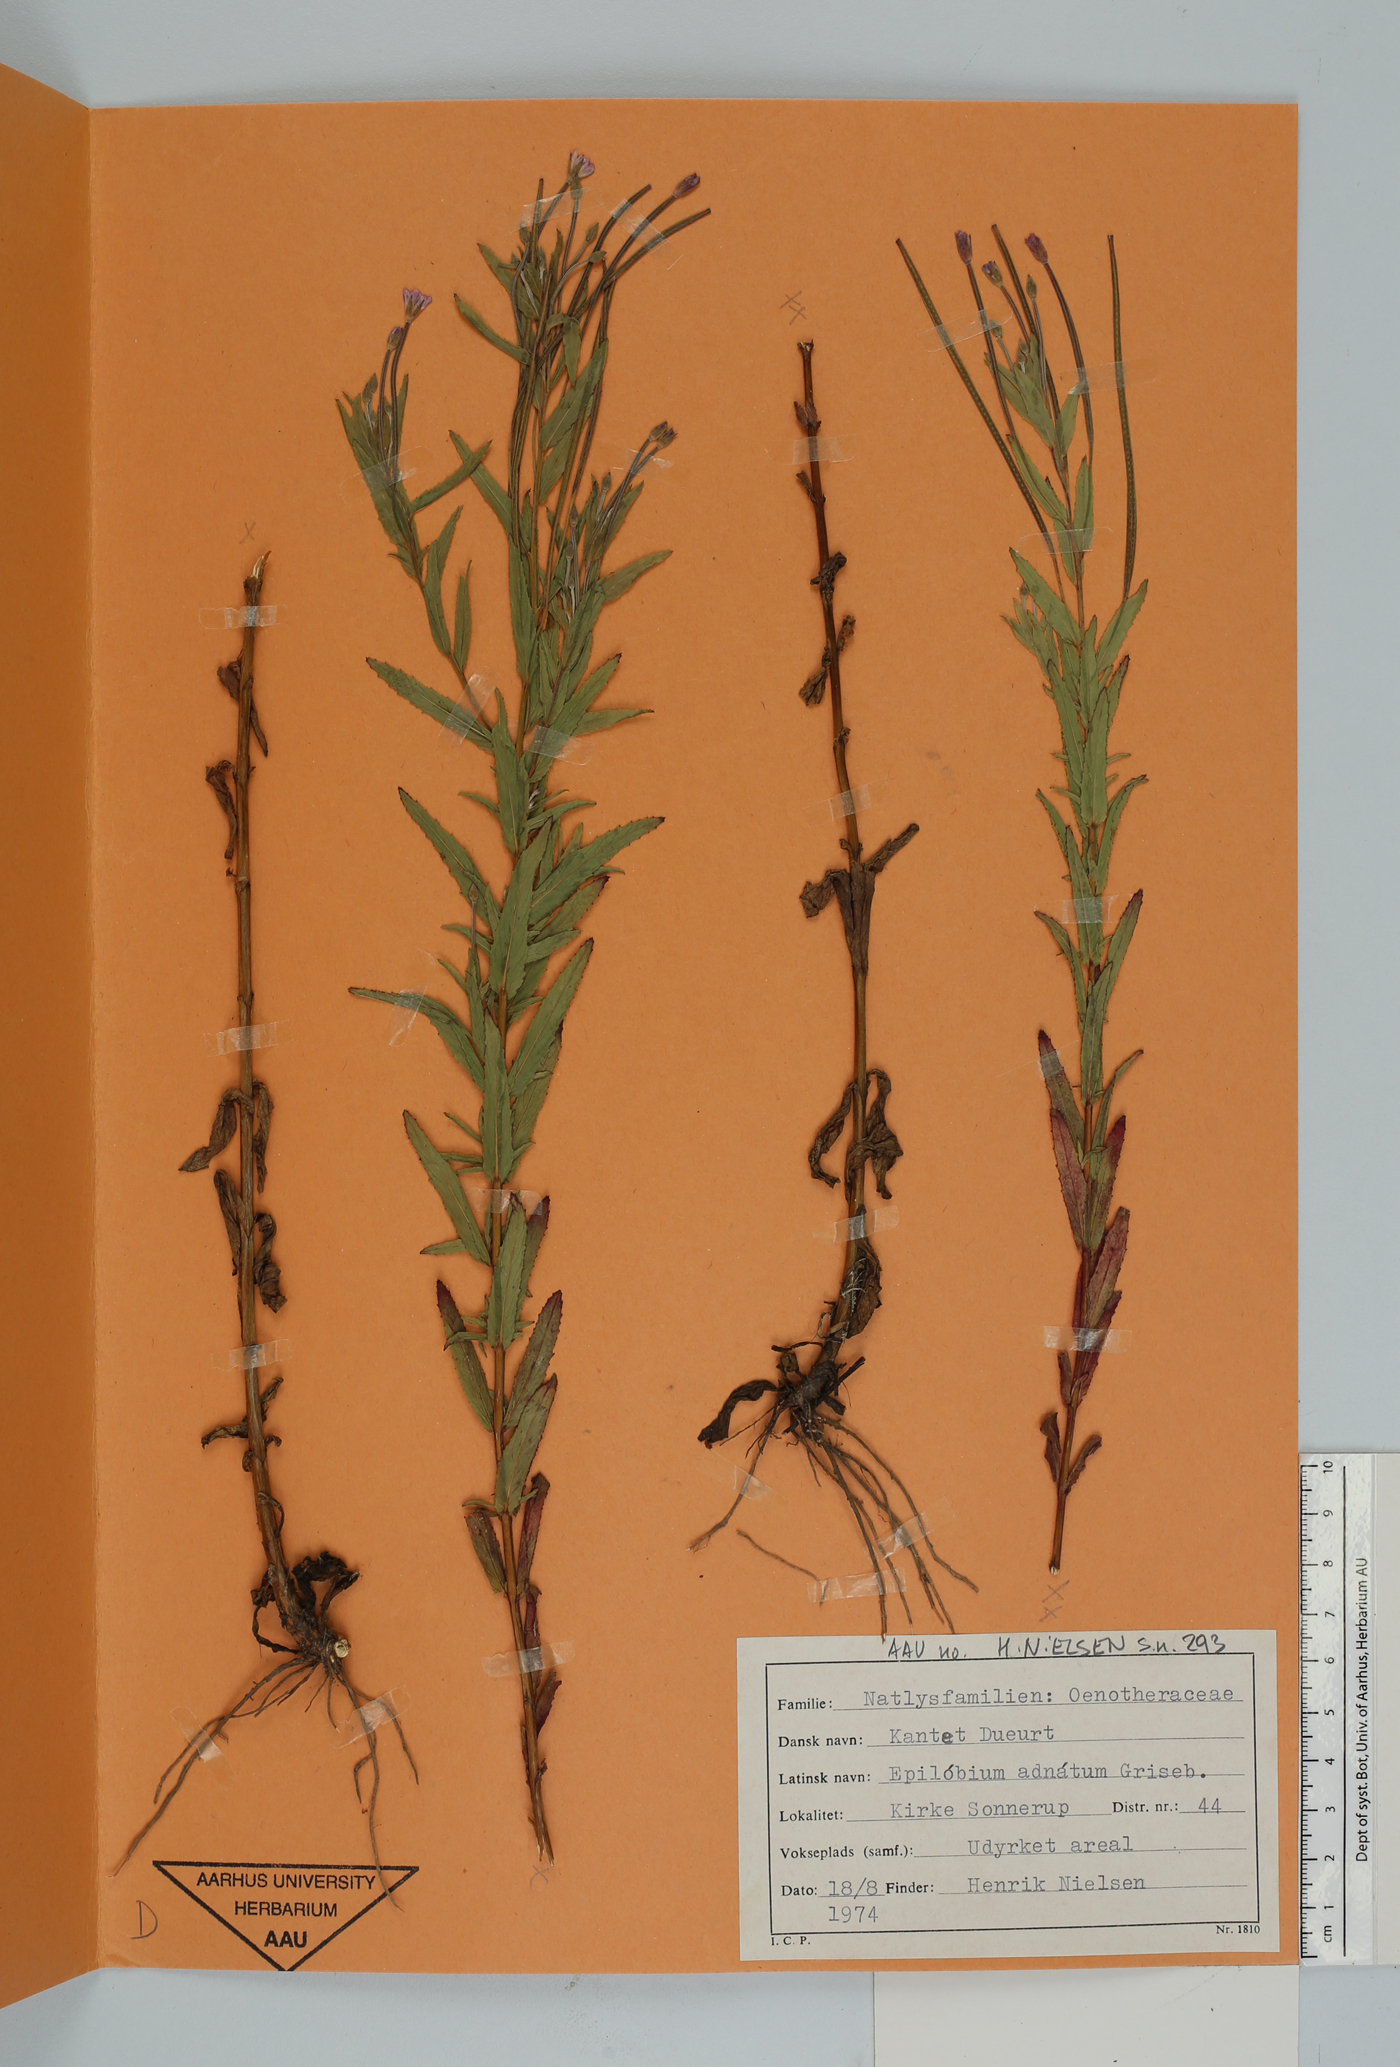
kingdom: Plantae
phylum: Tracheophyta
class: Magnoliopsida
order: Myrtales
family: Onagraceae
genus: Epilobium
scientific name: Epilobium tetragonum
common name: Square-stemmed willowherb
